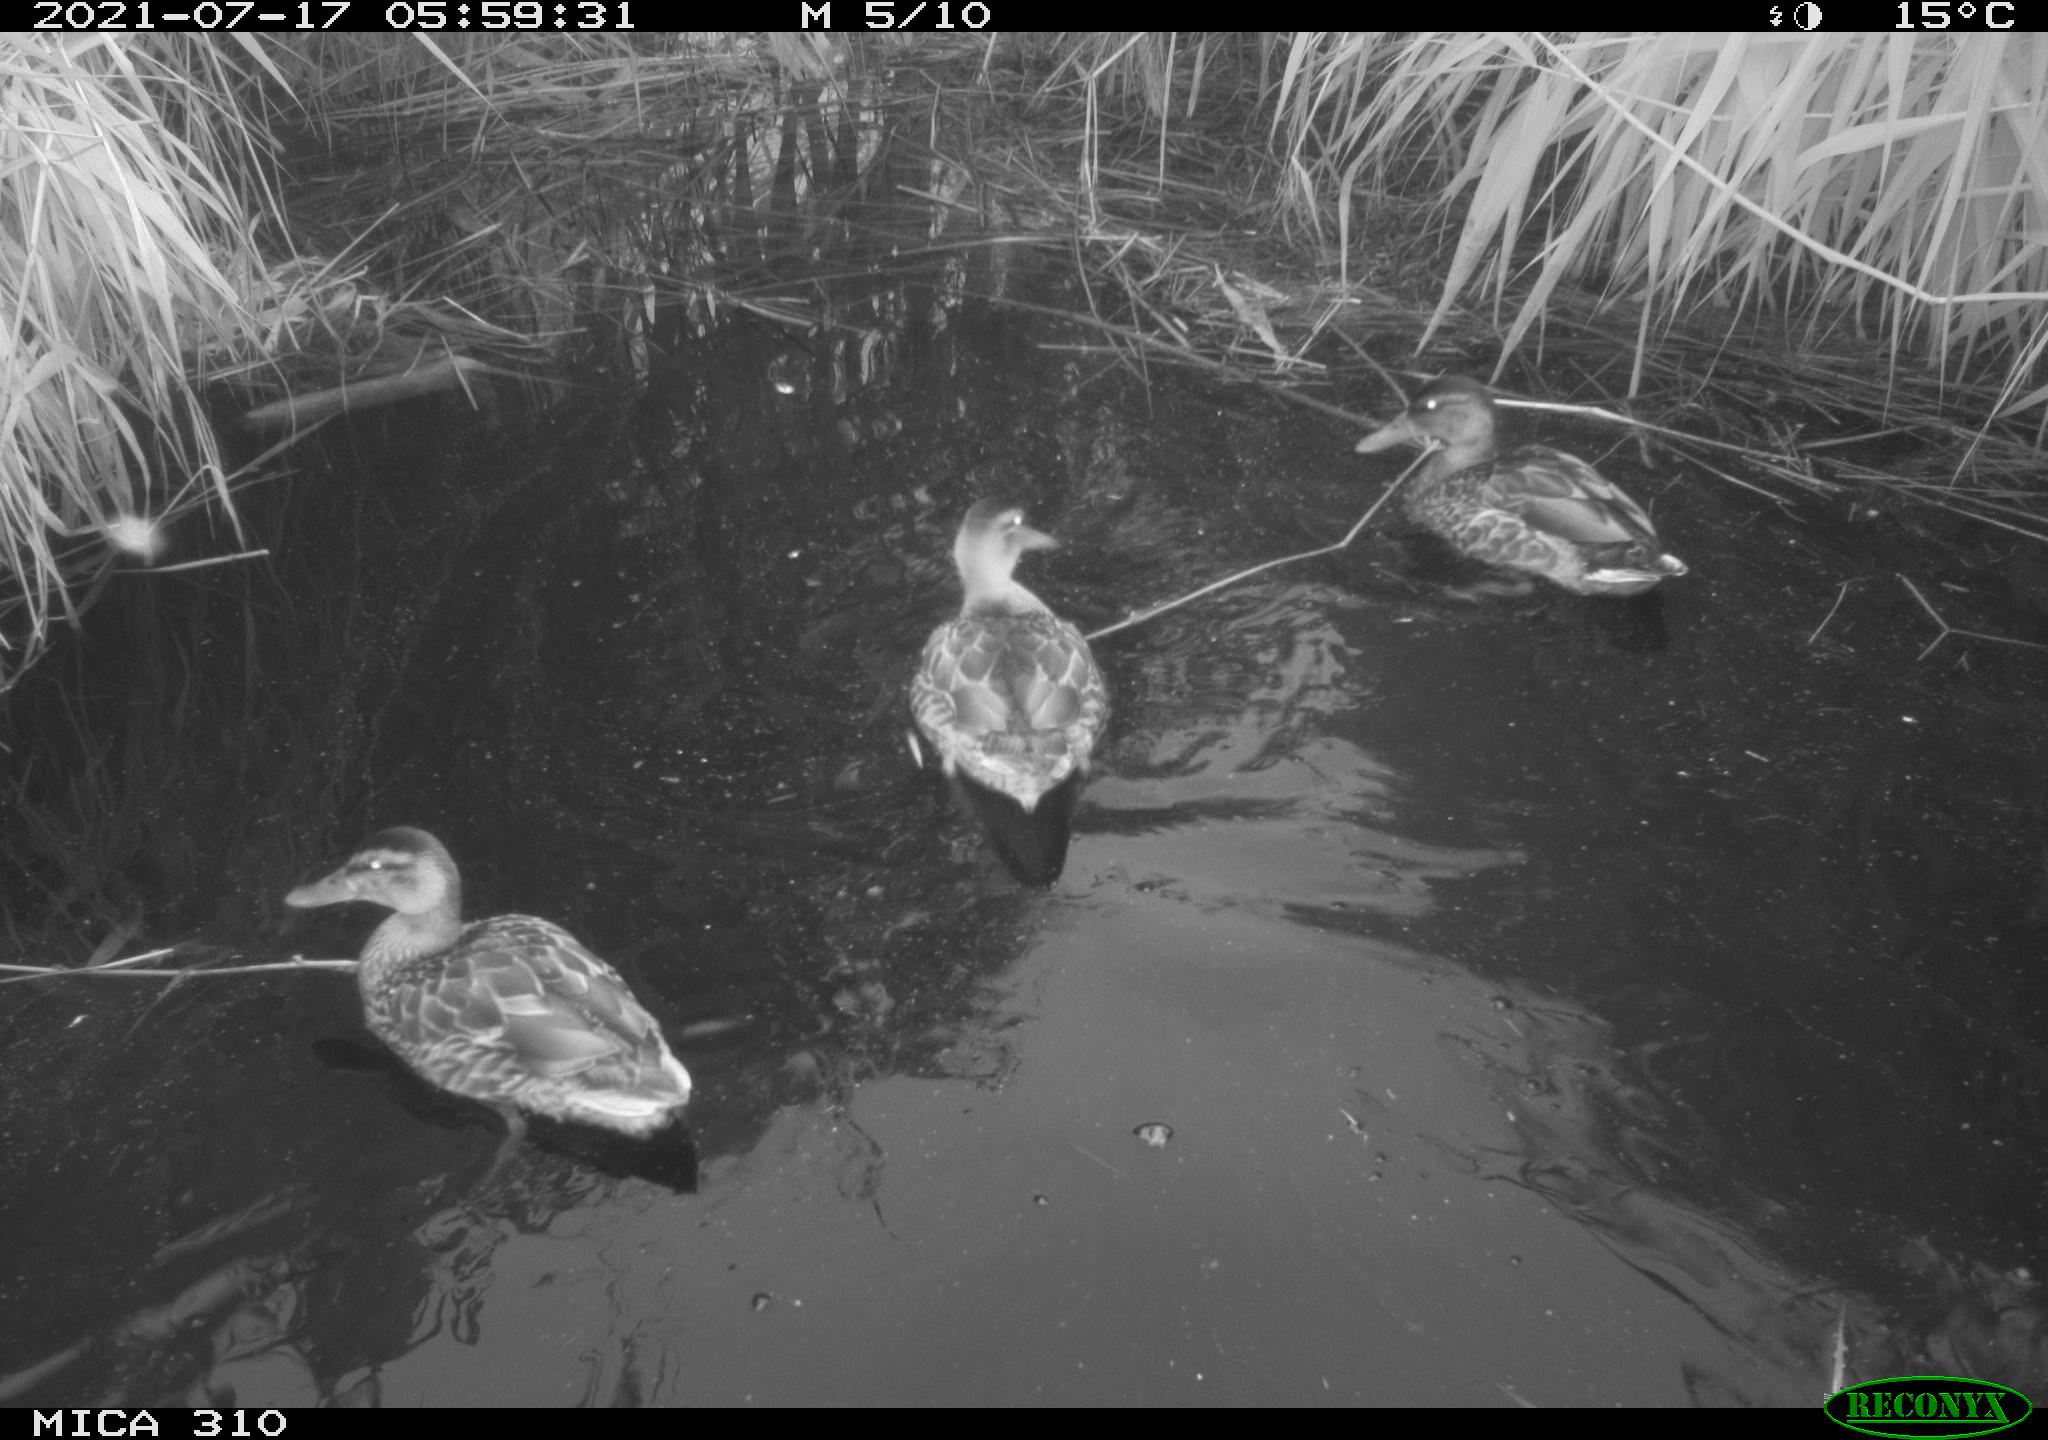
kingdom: Animalia
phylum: Chordata
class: Aves
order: Anseriformes
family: Anatidae
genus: Anas
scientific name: Anas platyrhynchos
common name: Mallard
